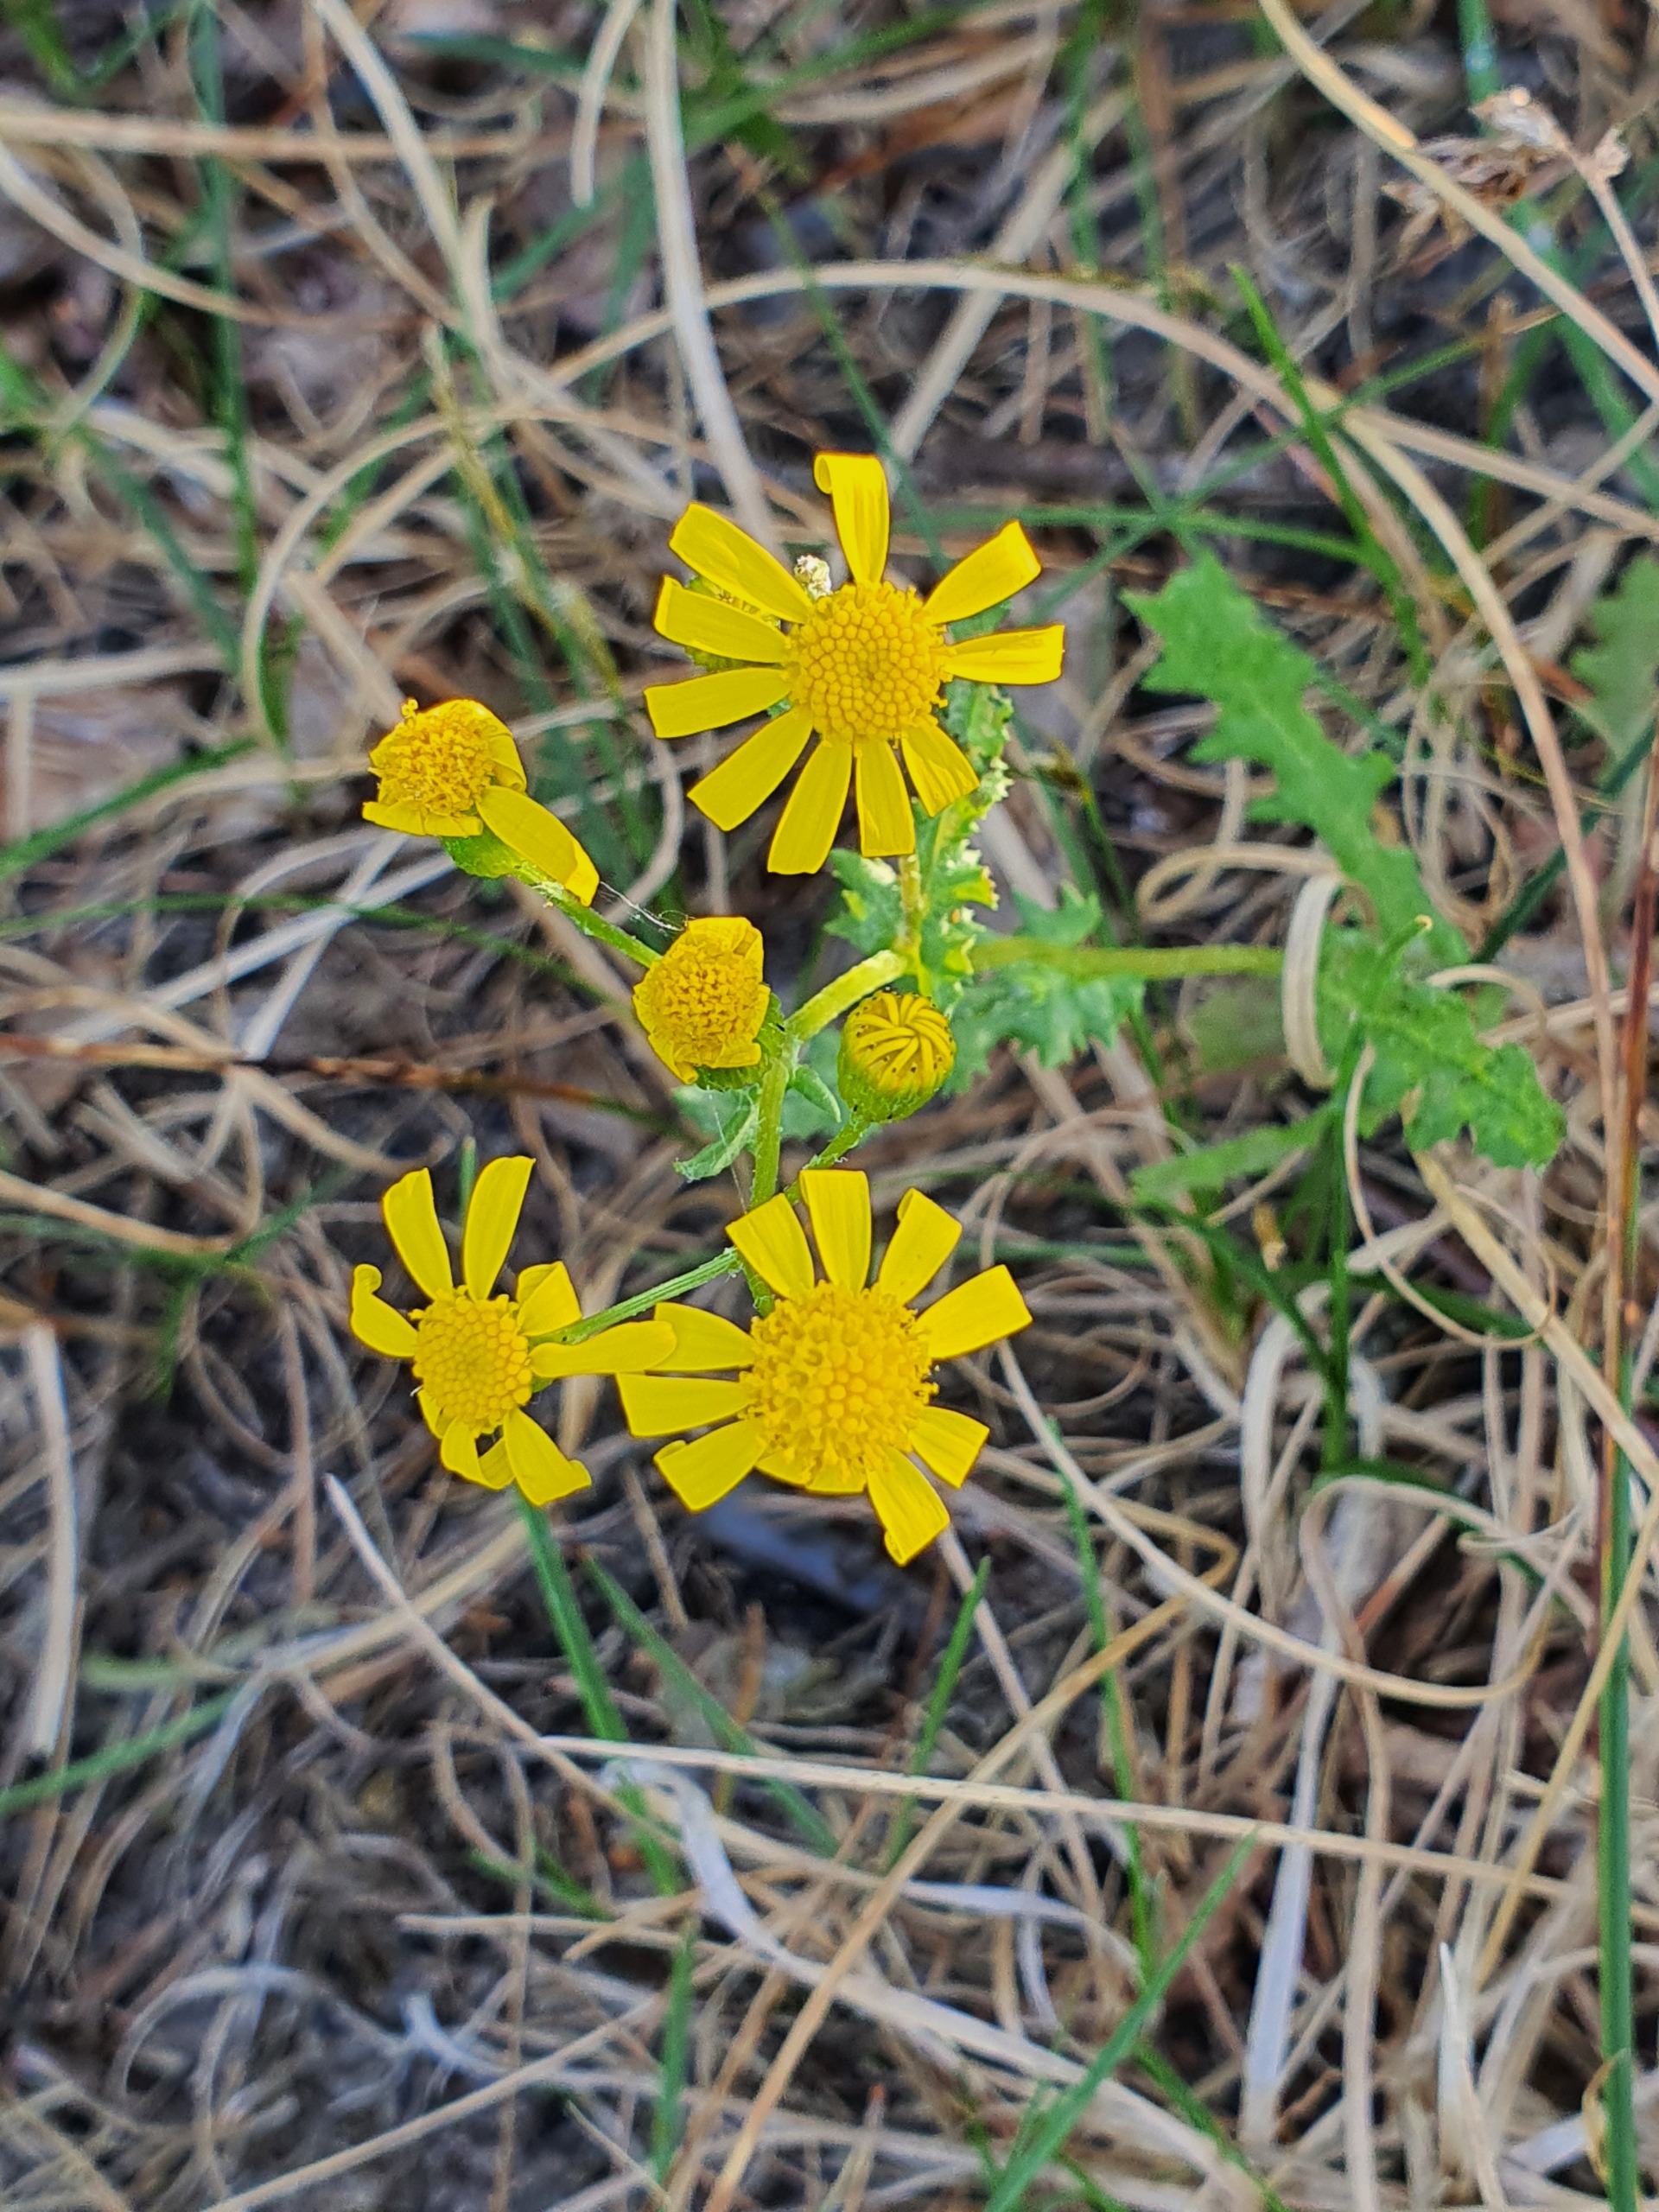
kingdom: Plantae
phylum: Tracheophyta
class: Magnoliopsida
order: Asterales
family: Asteraceae
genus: Senecio
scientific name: Senecio leucanthemifolius
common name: Vår-brandbæger
